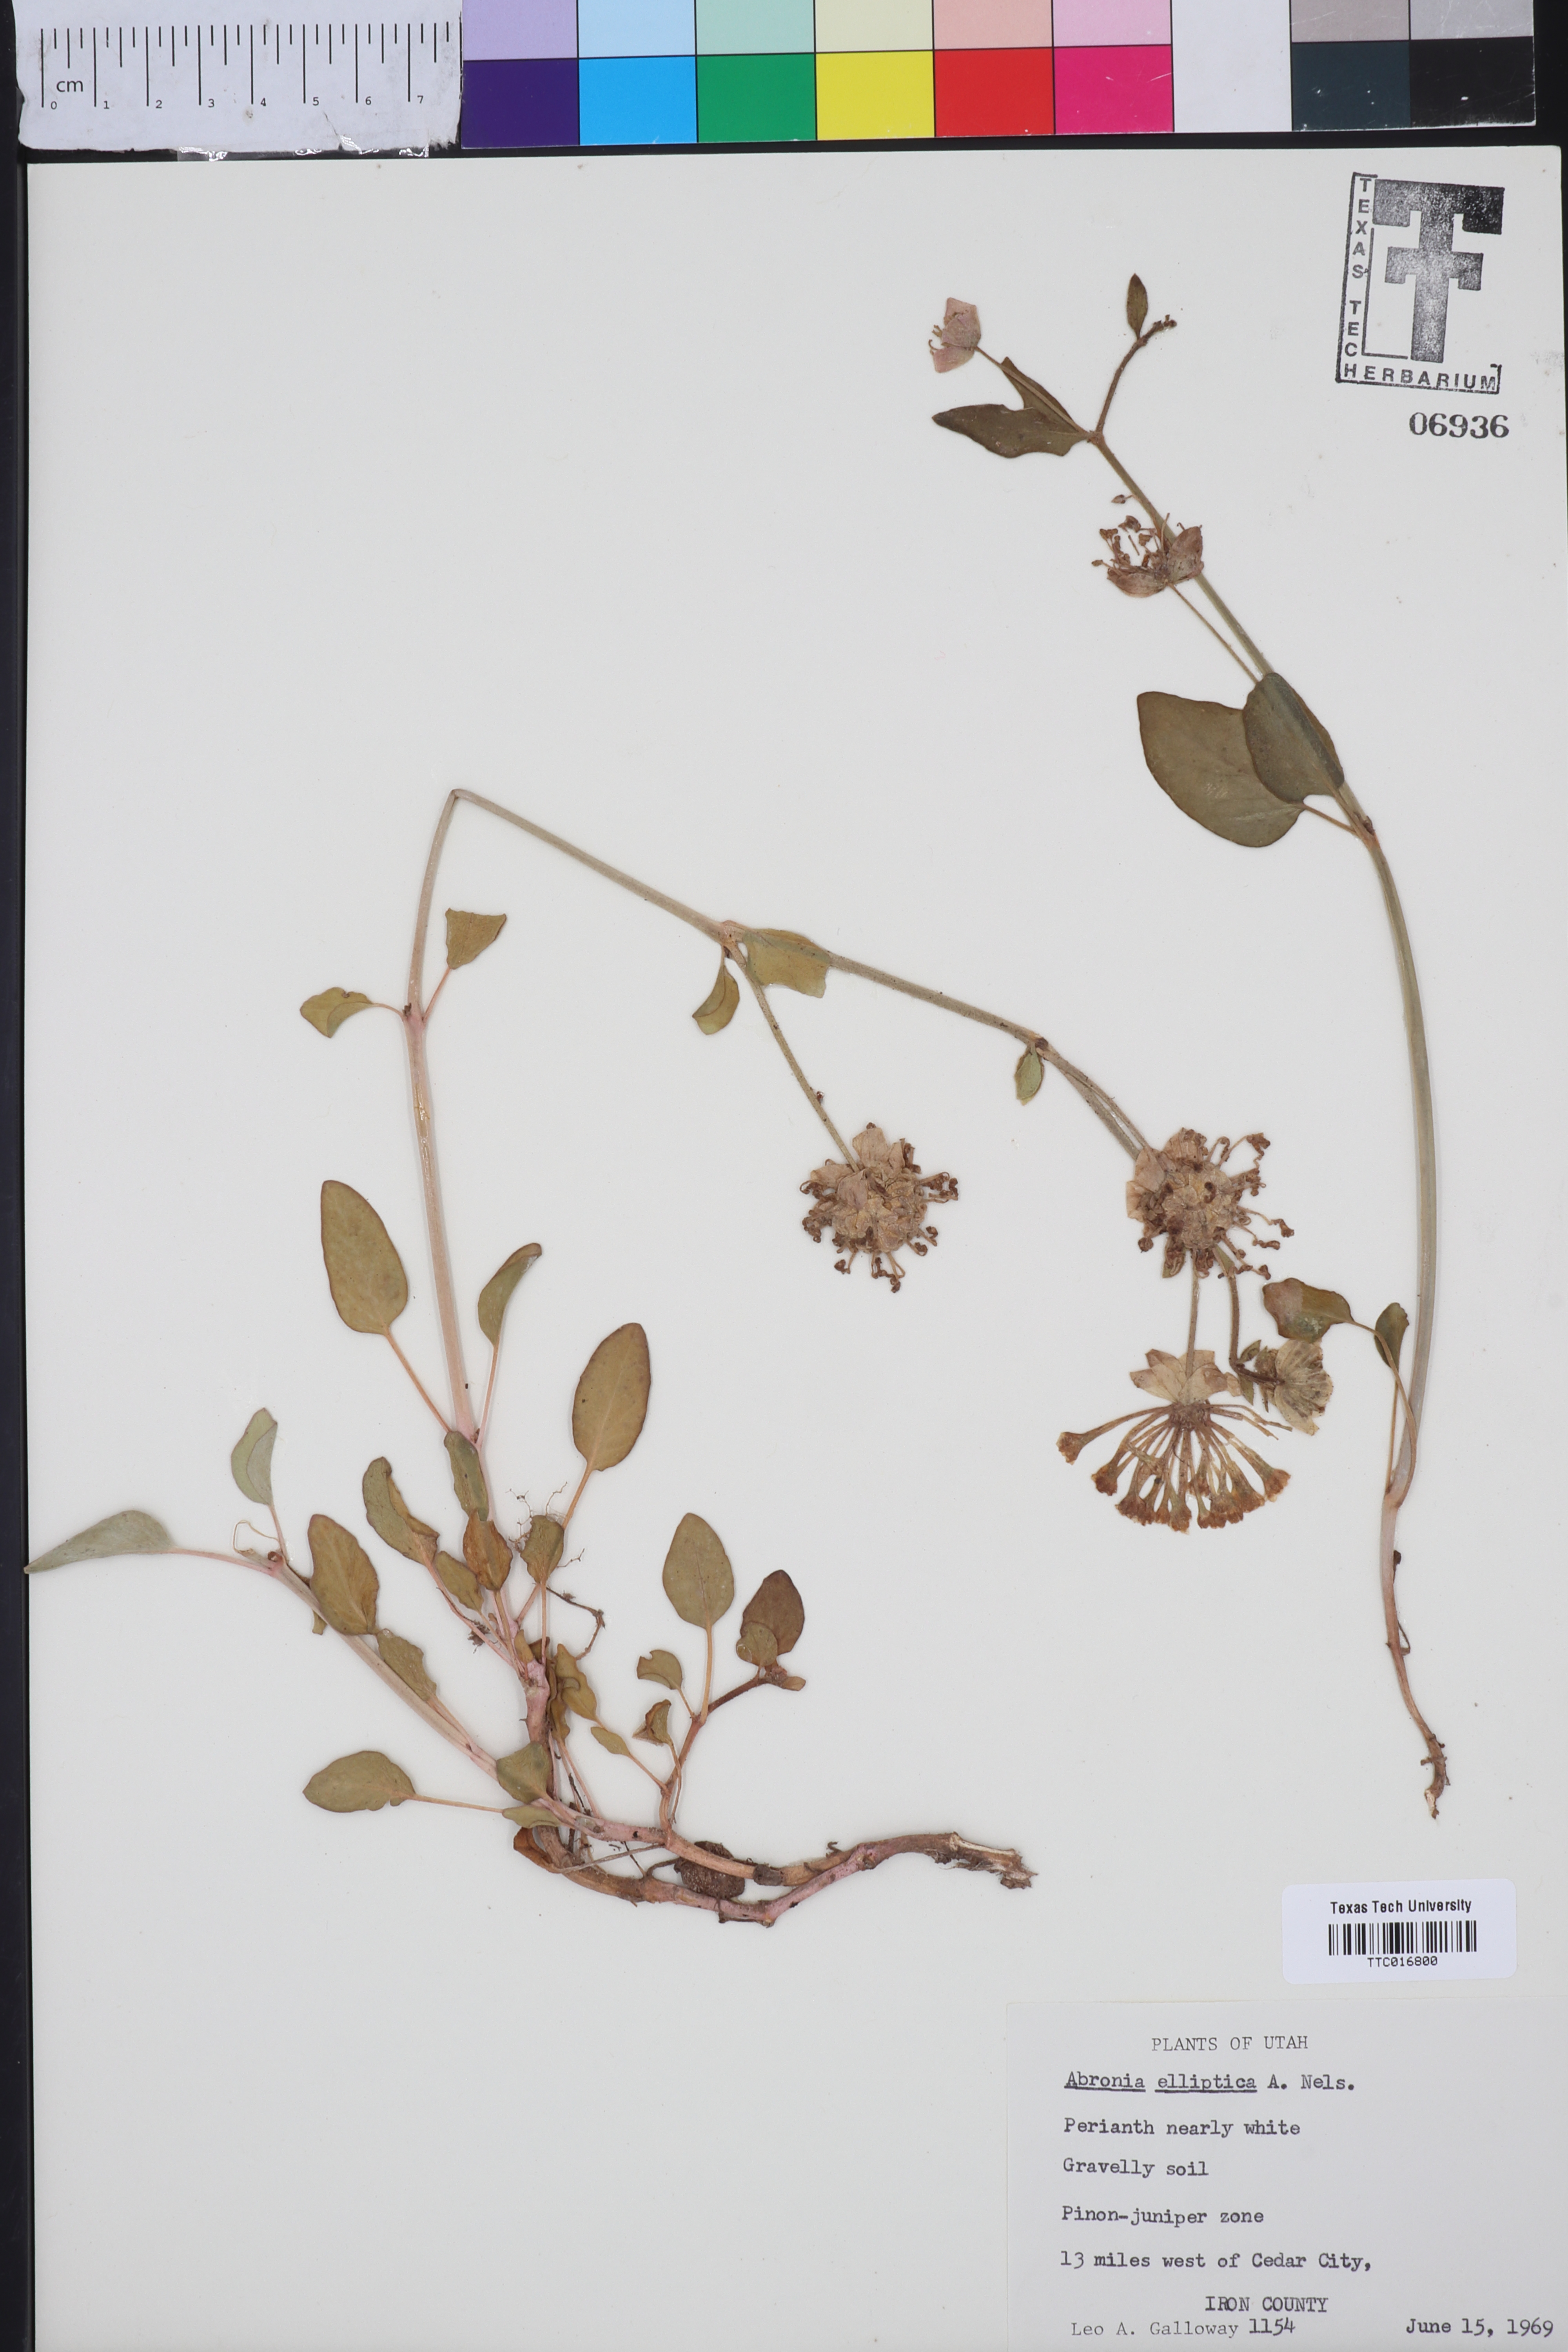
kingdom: Plantae
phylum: Tracheophyta
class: Magnoliopsida
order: Caryophyllales
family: Nyctaginaceae
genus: Abronia
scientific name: Abronia elliptica
